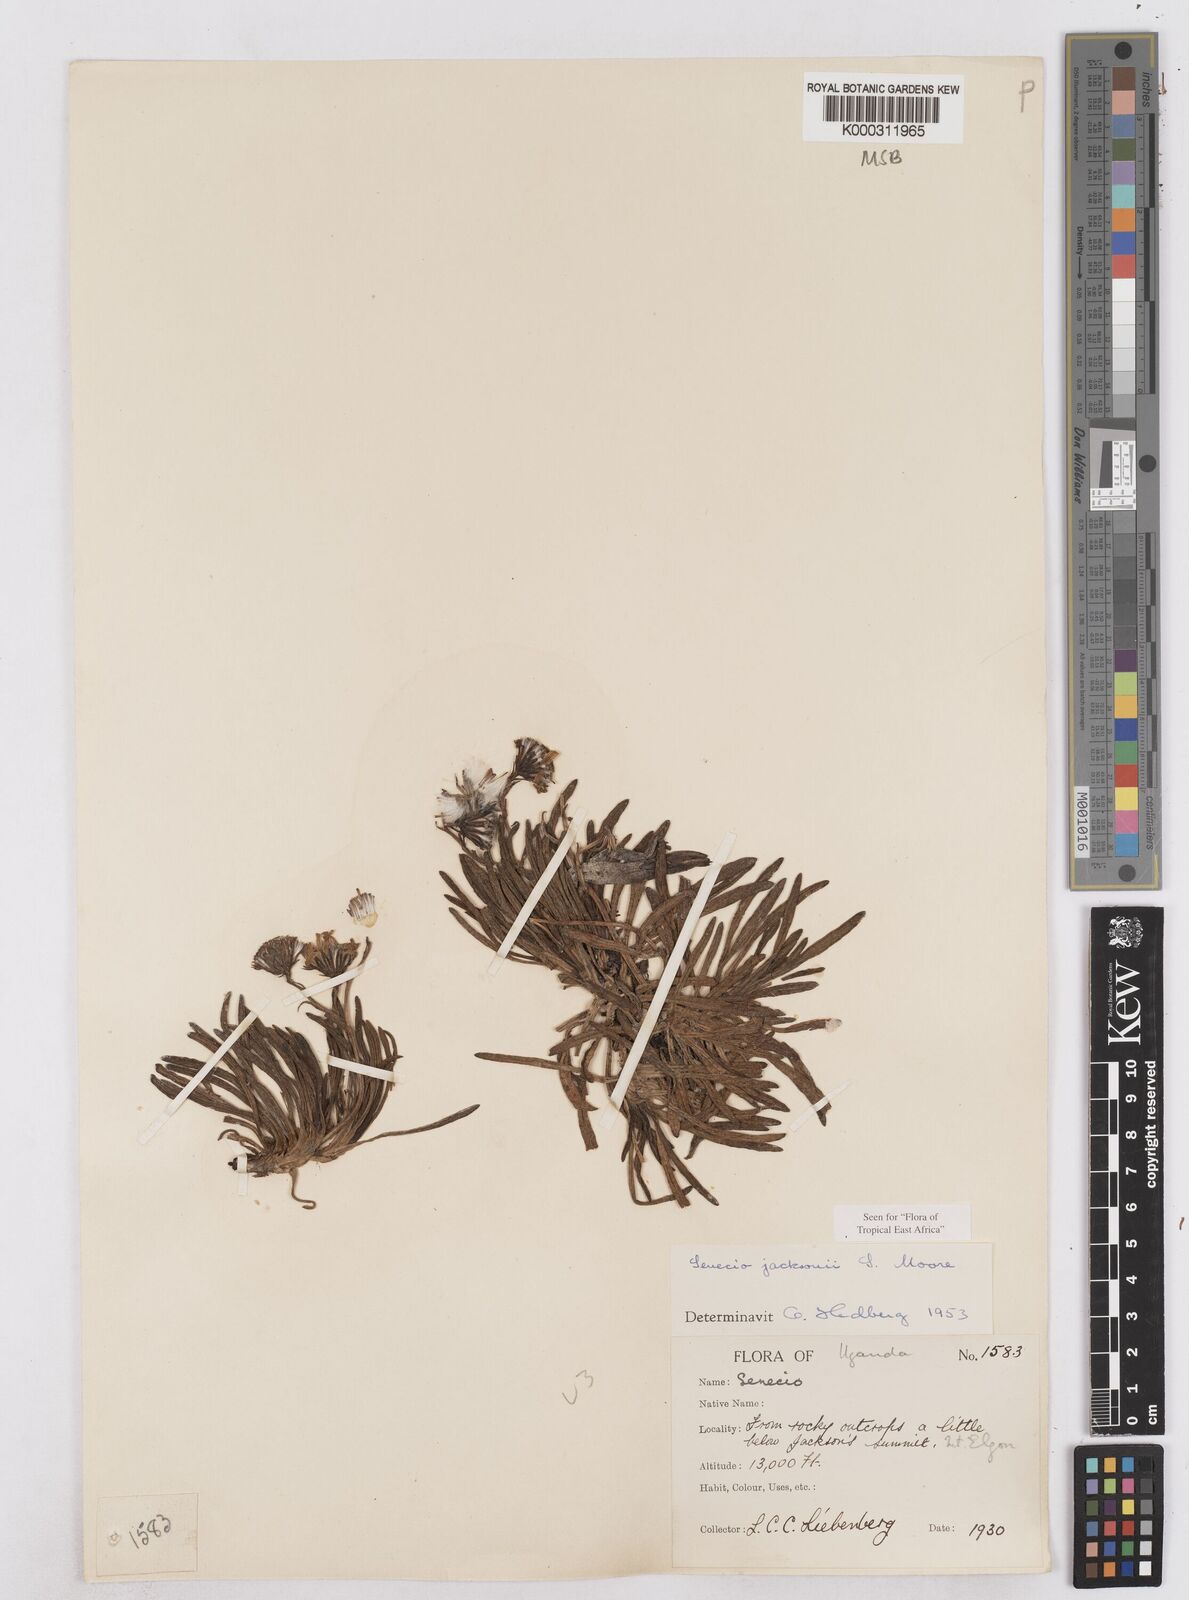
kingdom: Plantae
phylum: Tracheophyta
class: Magnoliopsida
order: Asterales
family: Asteraceae
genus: Senecio
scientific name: Senecio jacksonii
